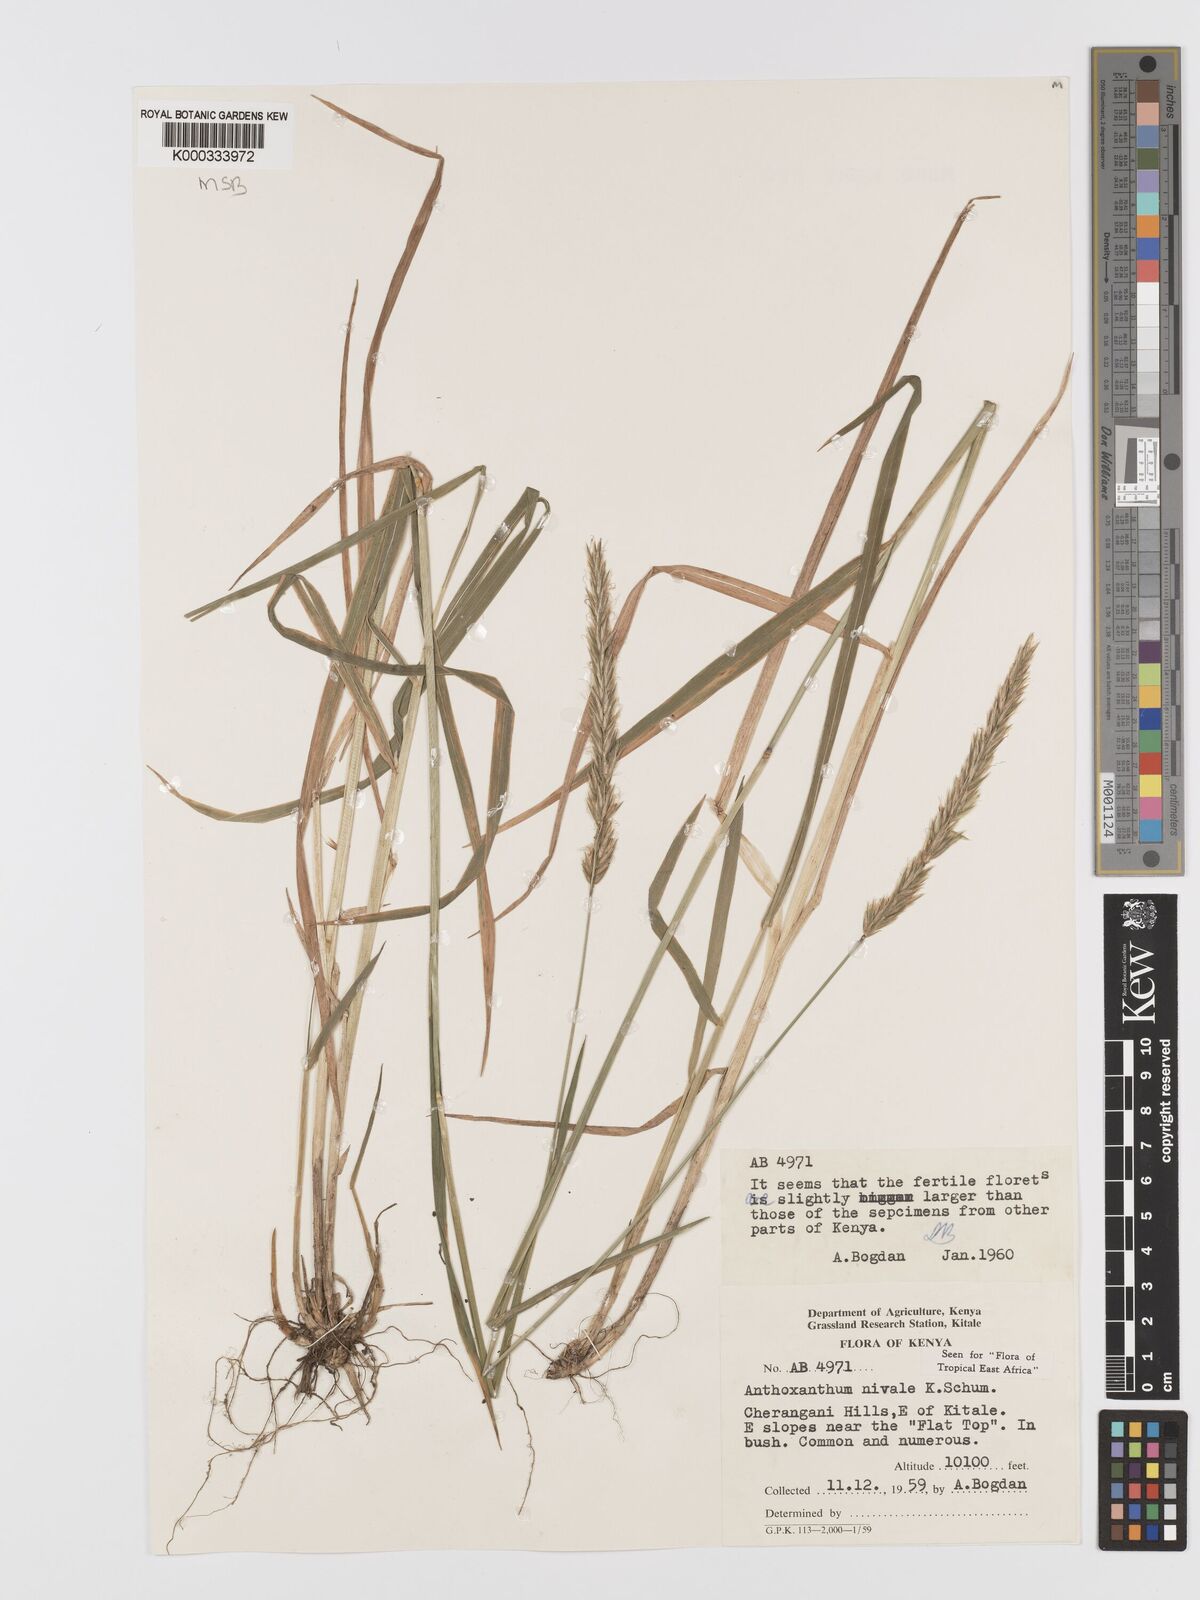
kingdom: Plantae
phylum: Tracheophyta
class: Liliopsida
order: Poales
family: Poaceae
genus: Anthoxanthum
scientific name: Anthoxanthum
